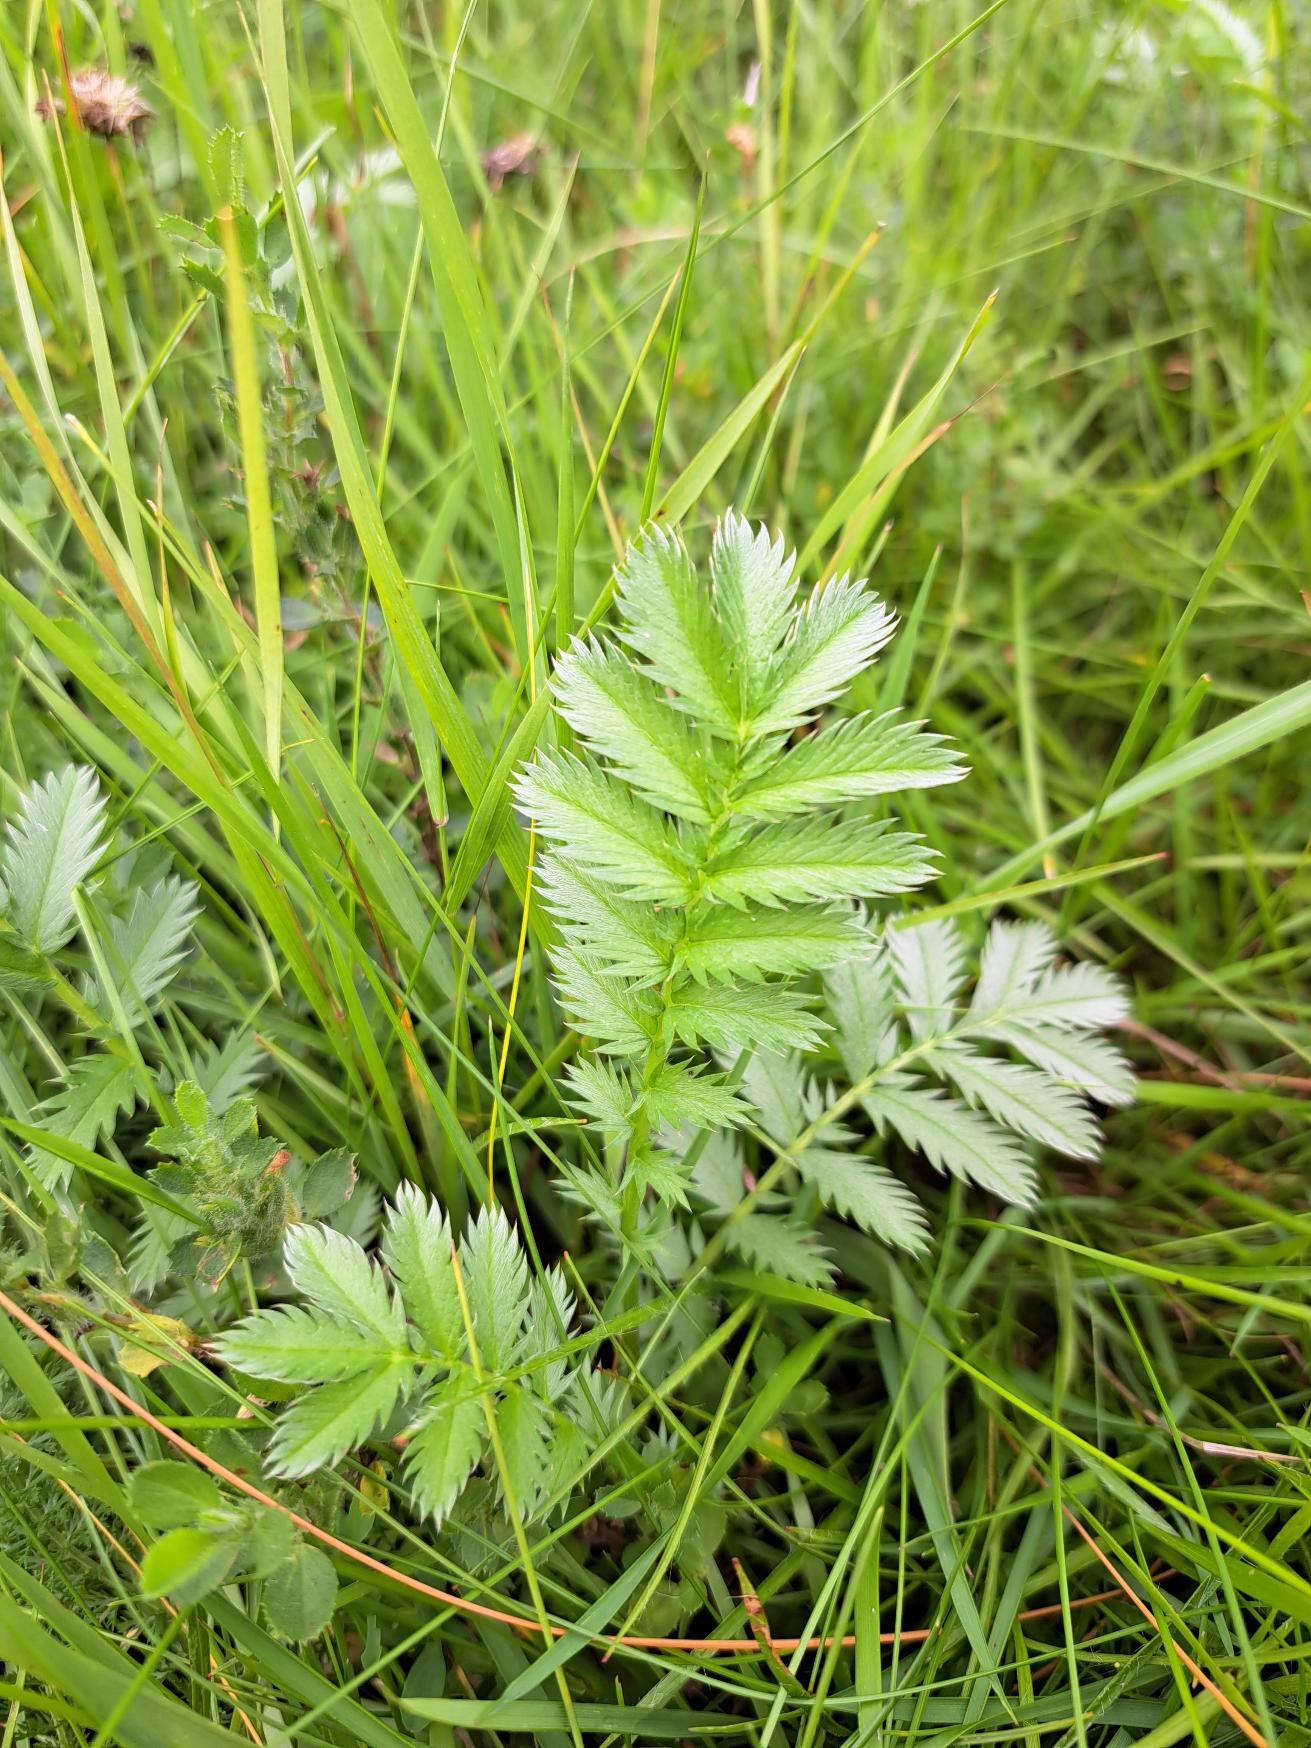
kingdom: Plantae
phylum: Tracheophyta
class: Magnoliopsida
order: Rosales
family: Rosaceae
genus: Argentina
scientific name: Argentina anserina
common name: Gåsepotentil
